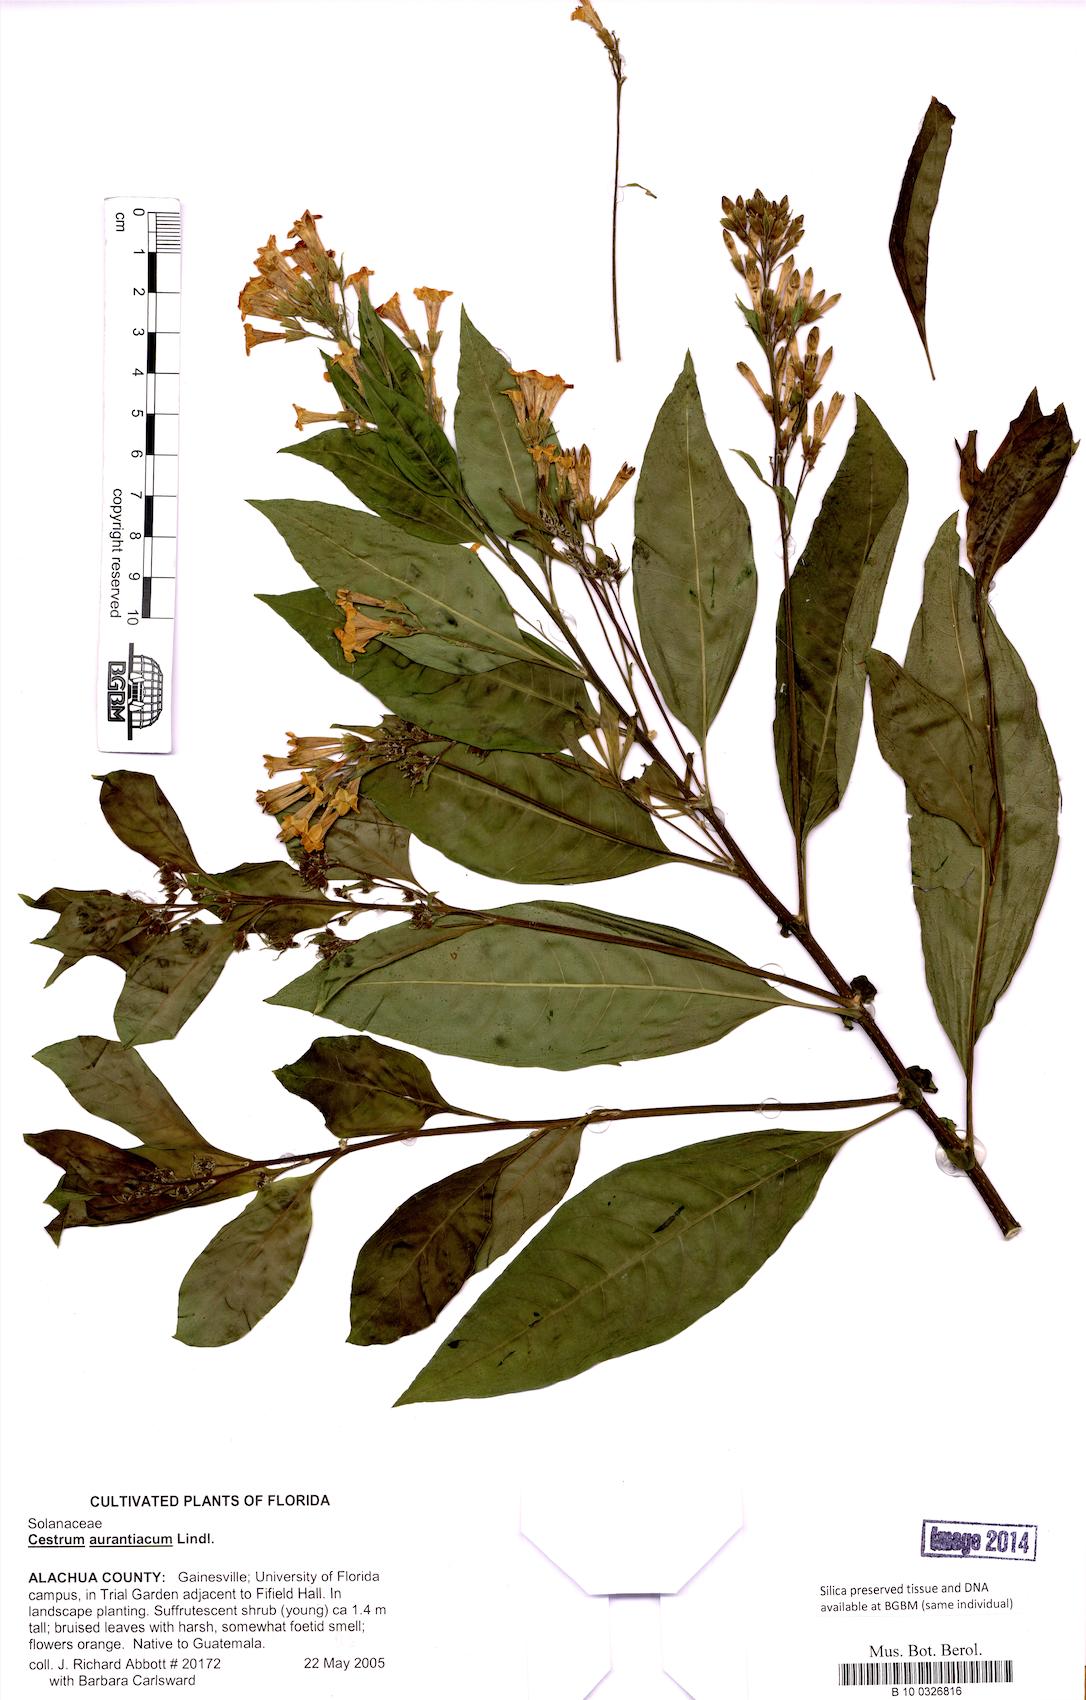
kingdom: Plantae
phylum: Tracheophyta
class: Magnoliopsida
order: Solanales
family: Solanaceae
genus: Cestrum
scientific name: Cestrum aurantiacum
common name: Orange cestrum
